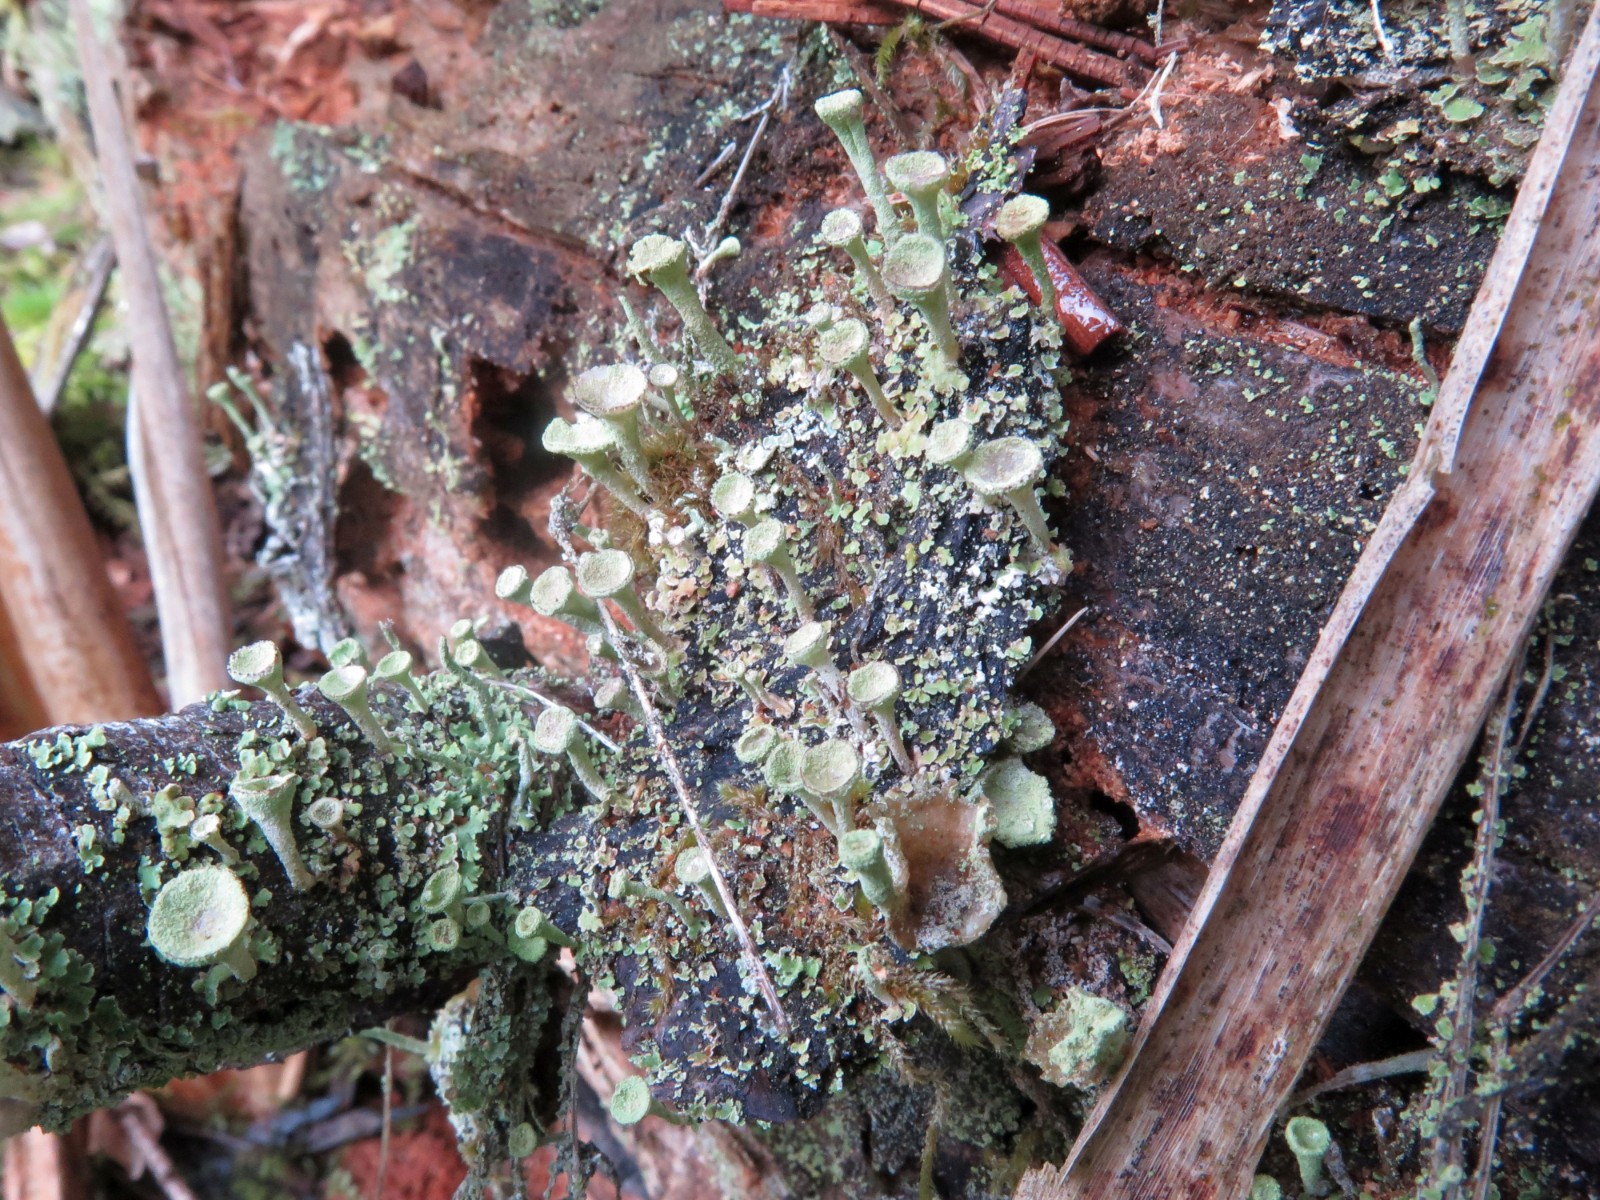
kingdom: Fungi
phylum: Ascomycota
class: Lecanoromycetes
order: Lecanorales
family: Cladoniaceae
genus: Cladonia
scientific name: Cladonia fimbriata
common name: bleggrøn bægerlav
